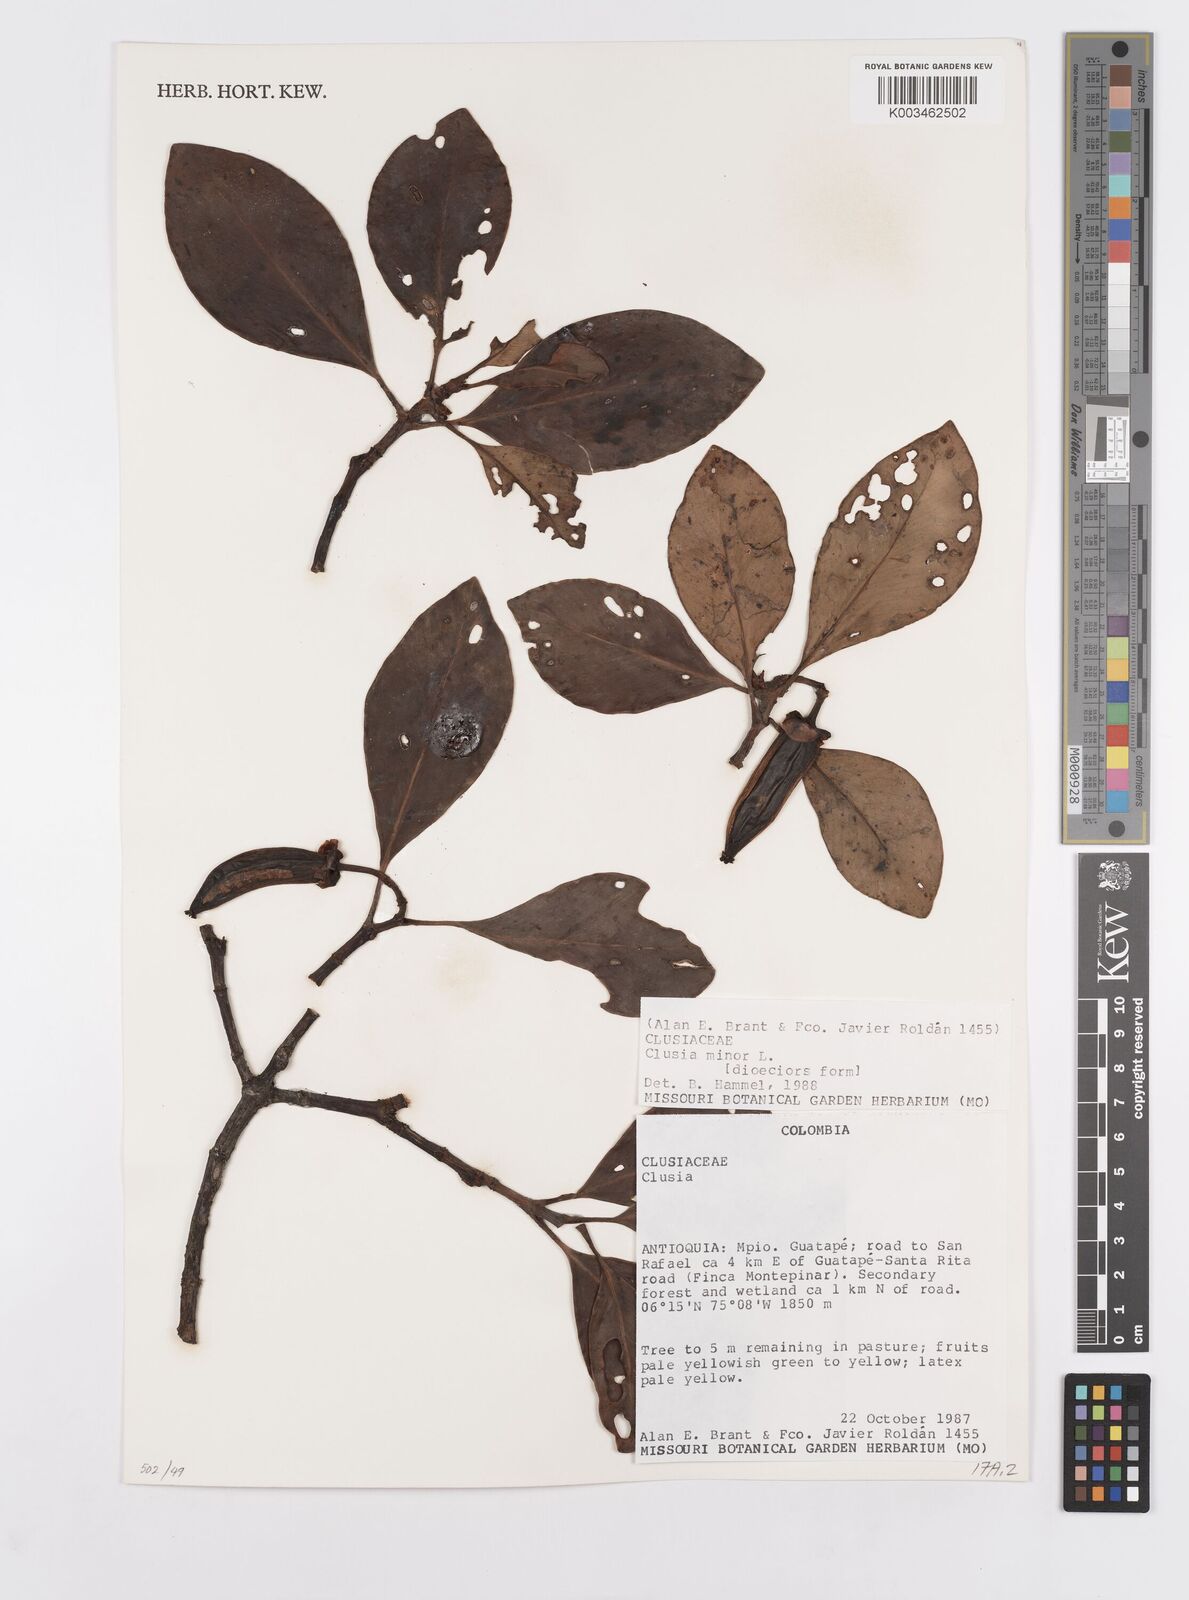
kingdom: Plantae
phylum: Tracheophyta
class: Magnoliopsida
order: Malpighiales
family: Clusiaceae
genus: Clusia
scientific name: Clusia minor
